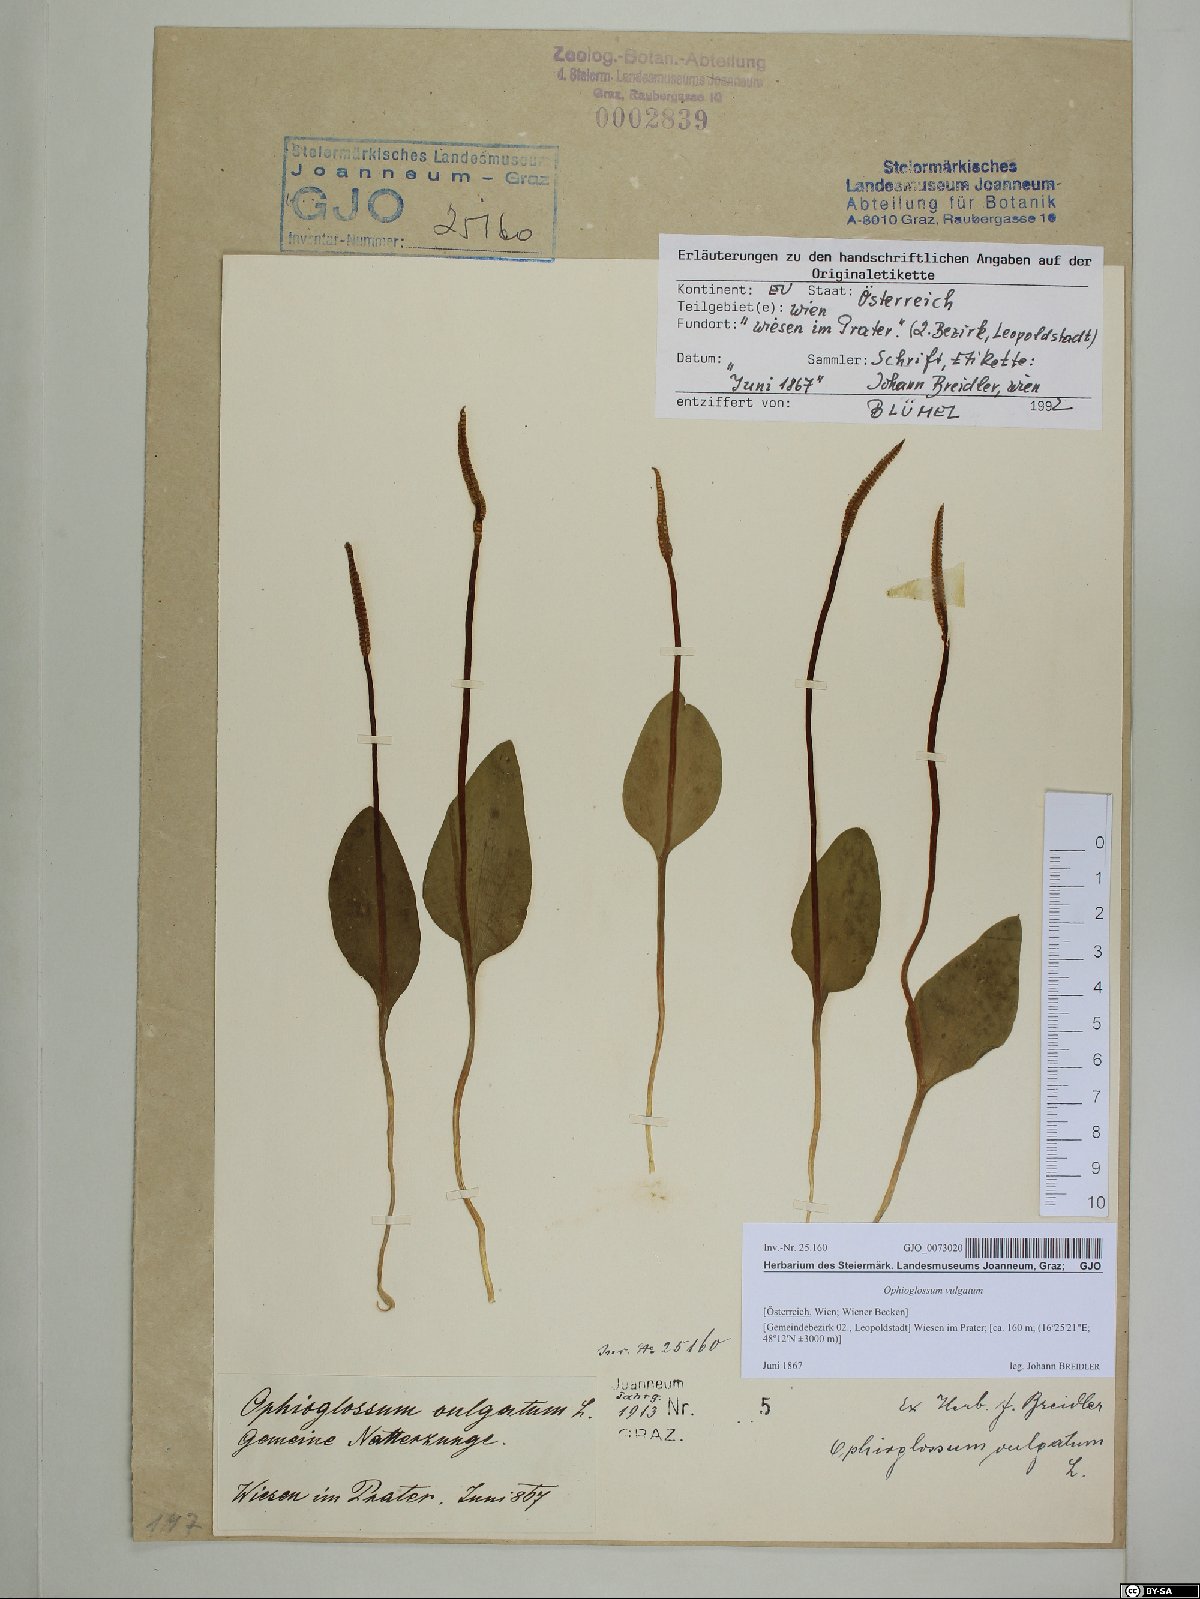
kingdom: Plantae
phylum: Tracheophyta
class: Polypodiopsida
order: Ophioglossales
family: Ophioglossaceae
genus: Ophioglossum
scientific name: Ophioglossum vulgatum
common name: Adder's-tongue
